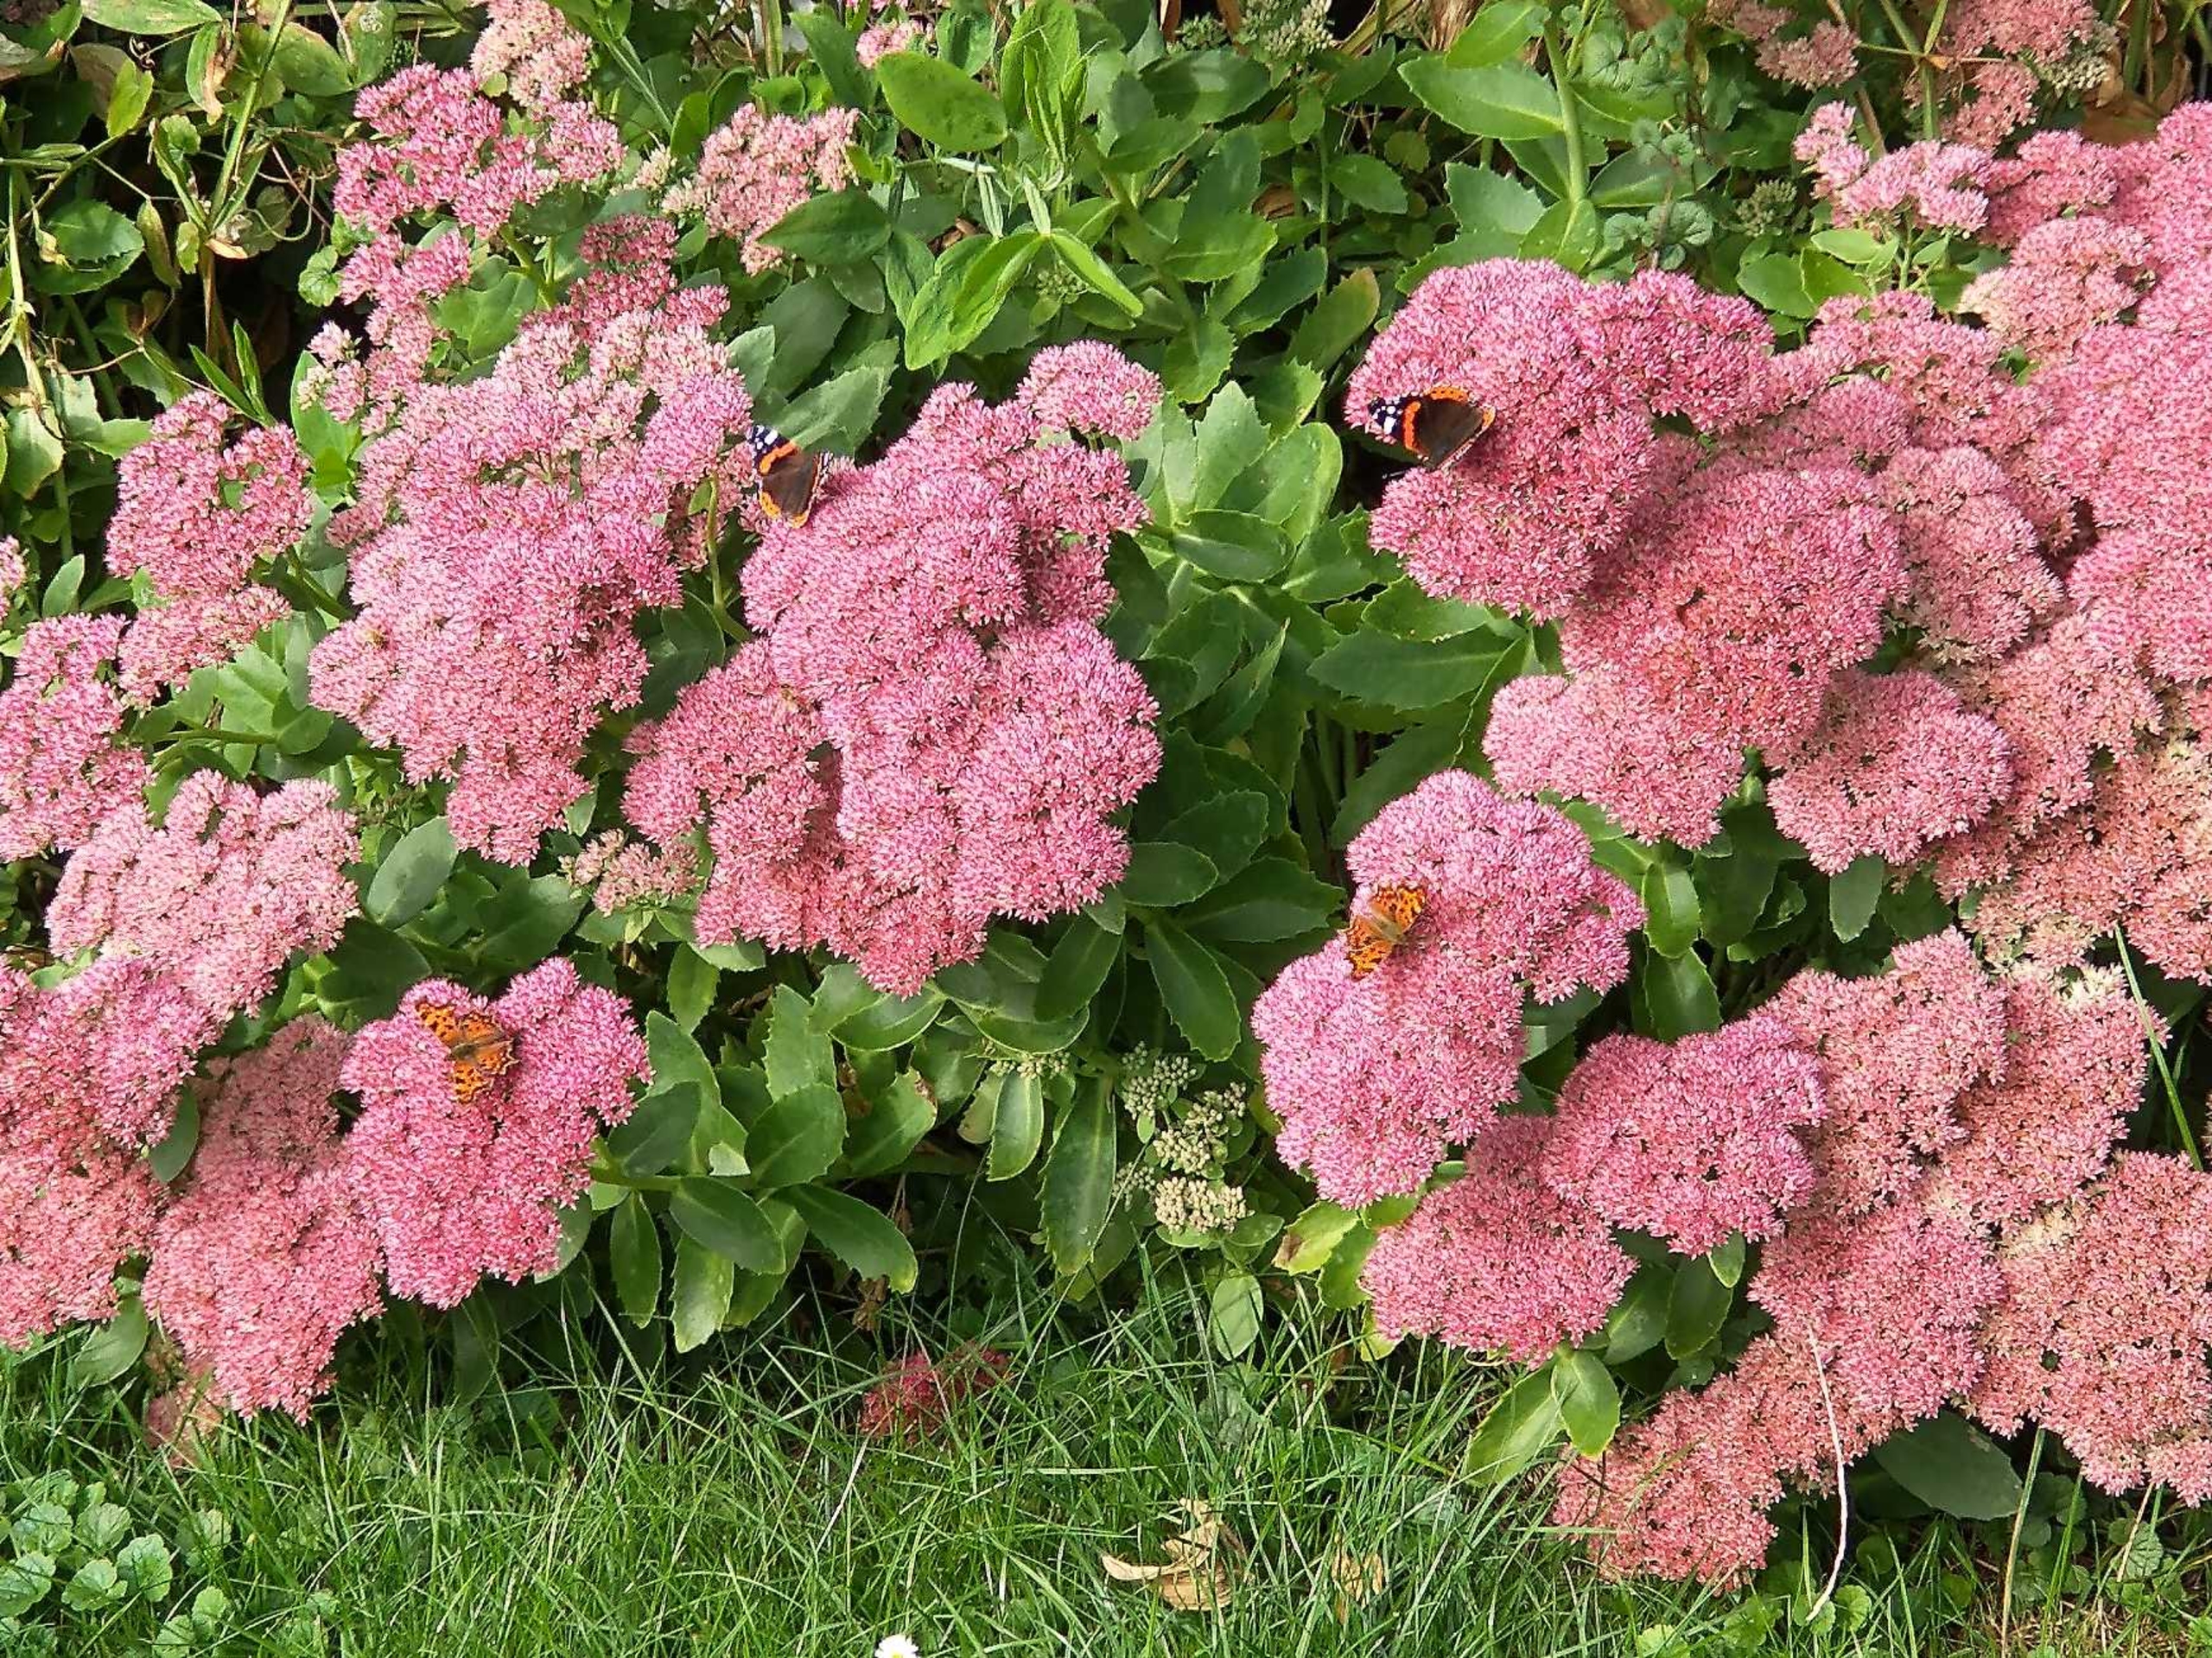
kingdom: Animalia
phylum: Arthropoda
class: Insecta
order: Lepidoptera
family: Nymphalidae
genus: Vanessa
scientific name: Vanessa atalanta
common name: Admiral
